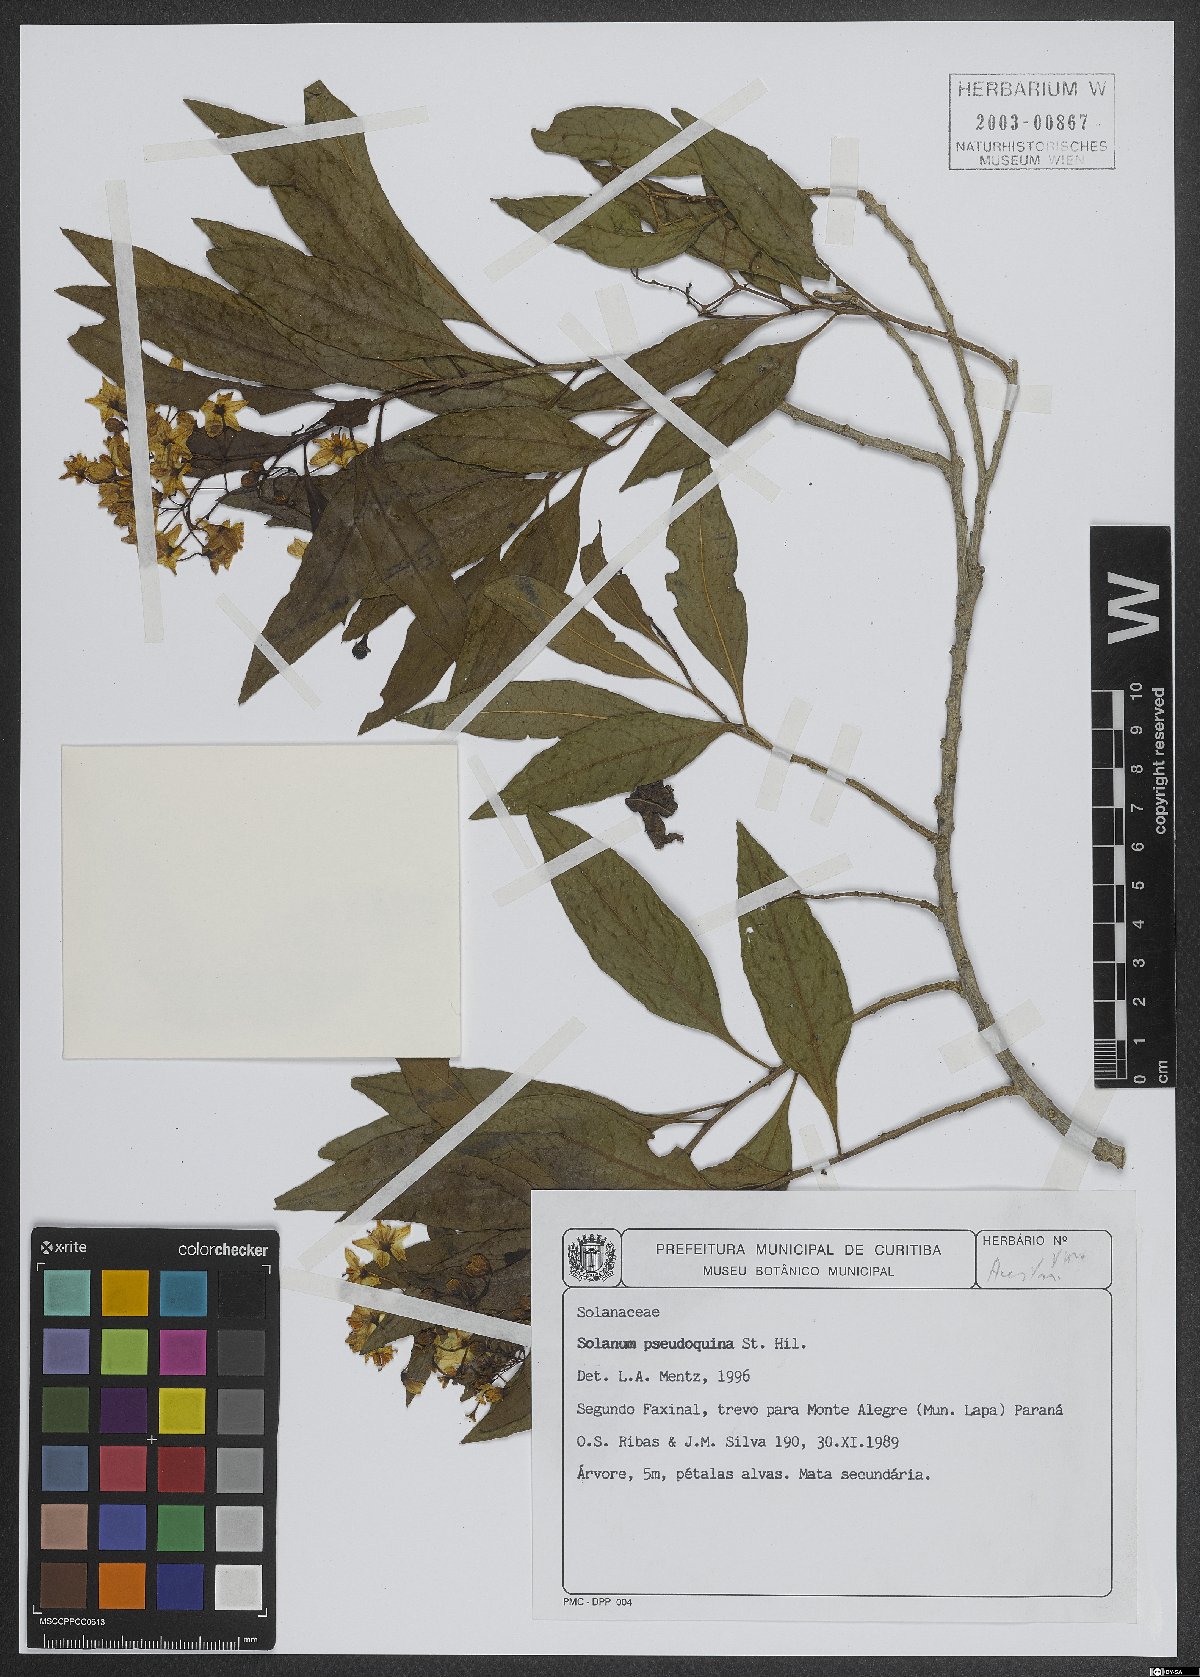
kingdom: Plantae
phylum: Tracheophyta
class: Magnoliopsida
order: Solanales
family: Solanaceae
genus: Solanum
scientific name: Solanum pseudoquina
